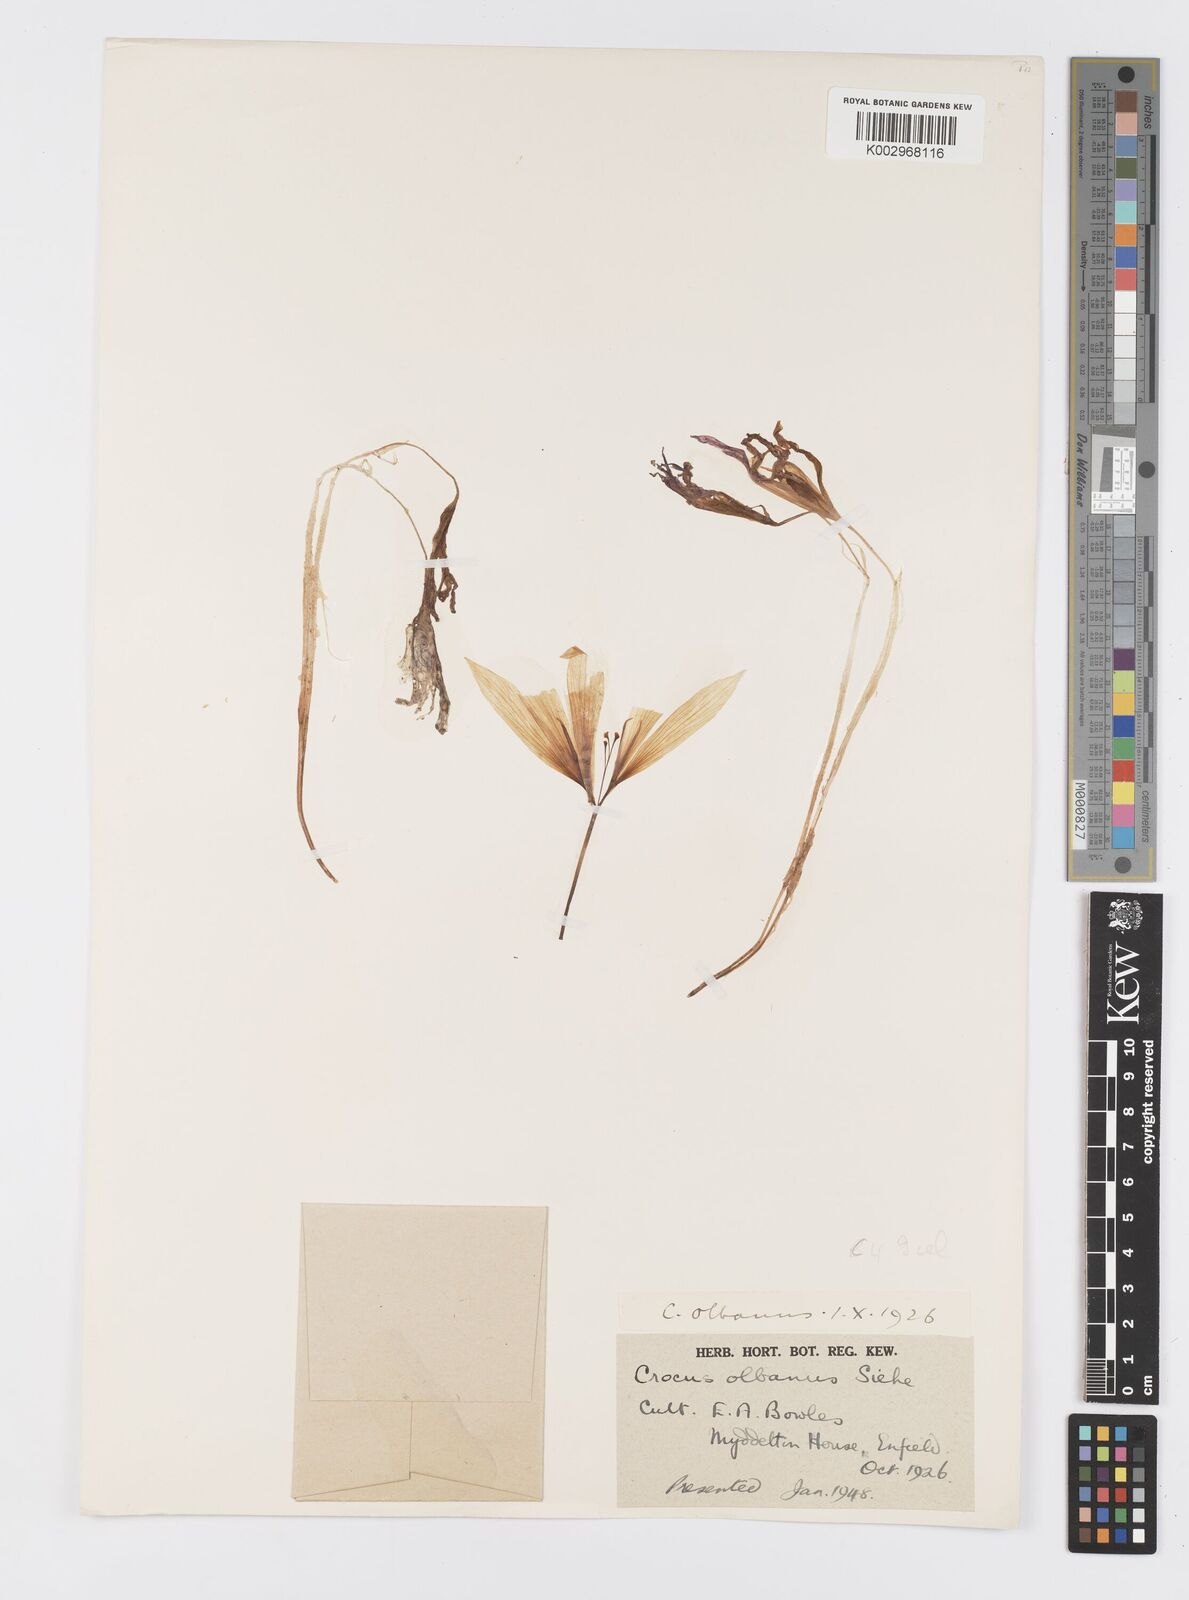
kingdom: Plantae
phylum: Tracheophyta
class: Liliopsida
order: Asparagales
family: Iridaceae
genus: Crocus
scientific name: Crocus
